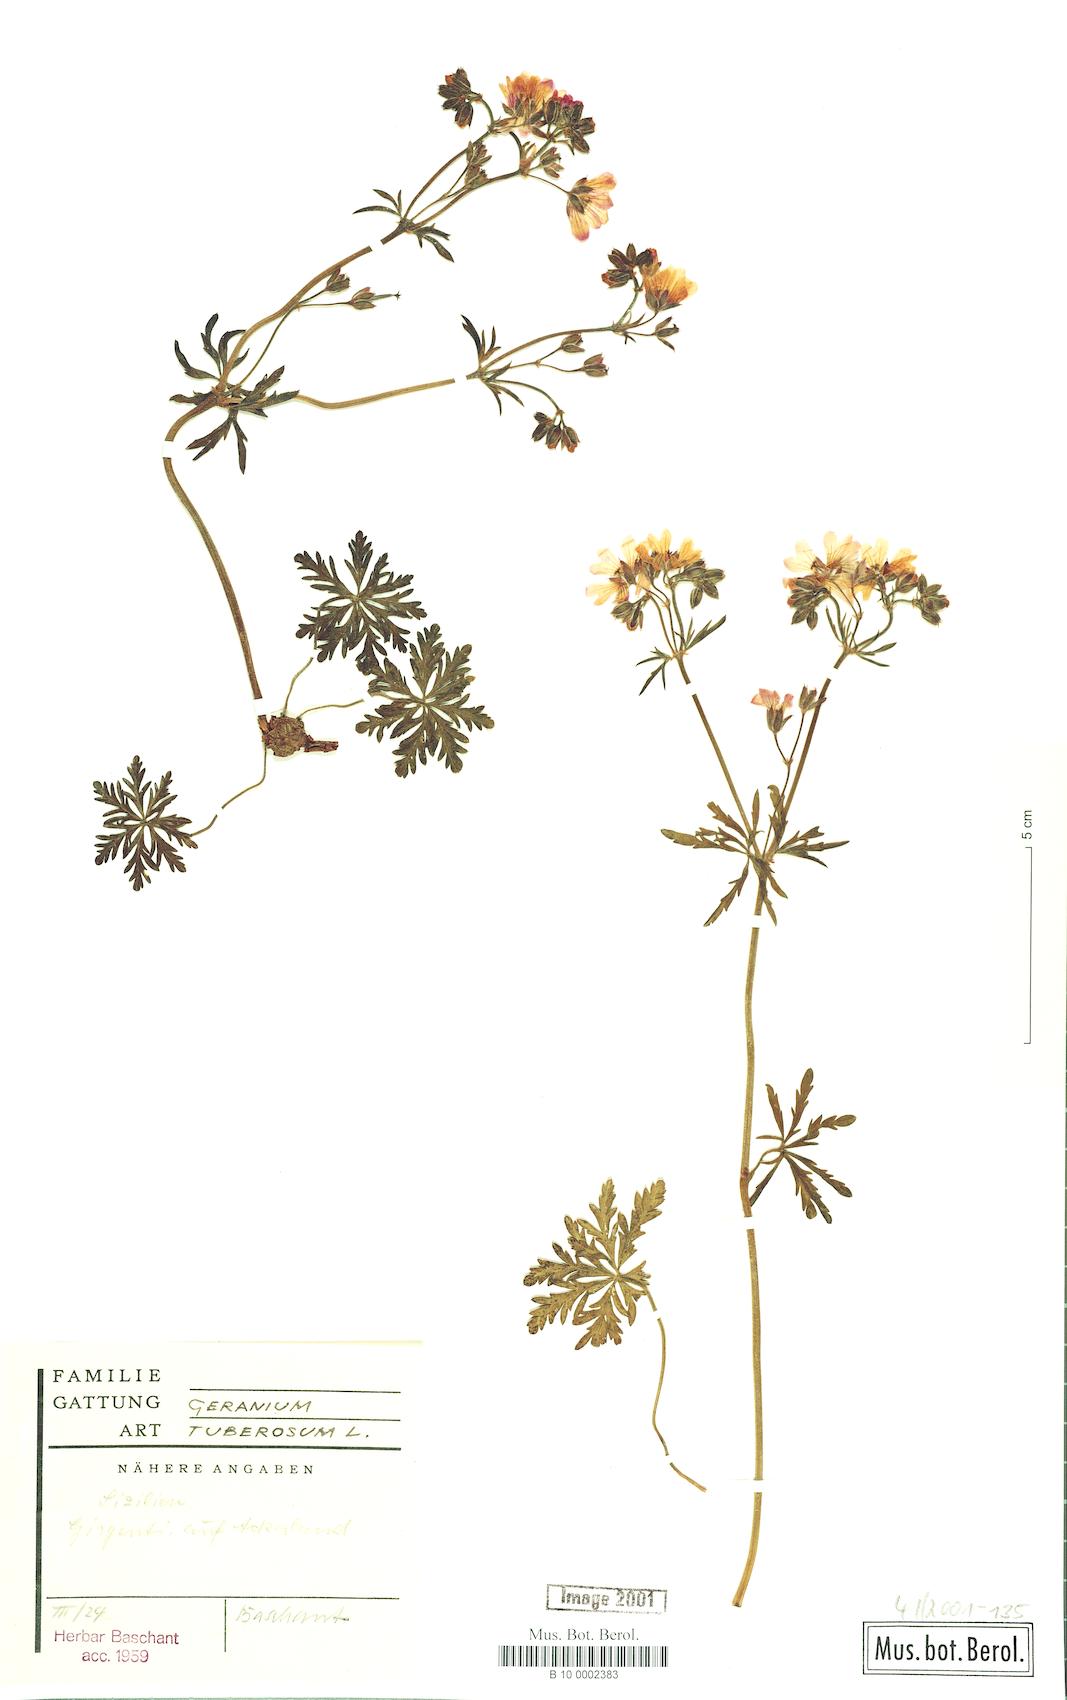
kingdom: Plantae
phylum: Tracheophyta
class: Magnoliopsida
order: Geraniales
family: Geraniaceae
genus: Geranium
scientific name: Geranium tuberosum
